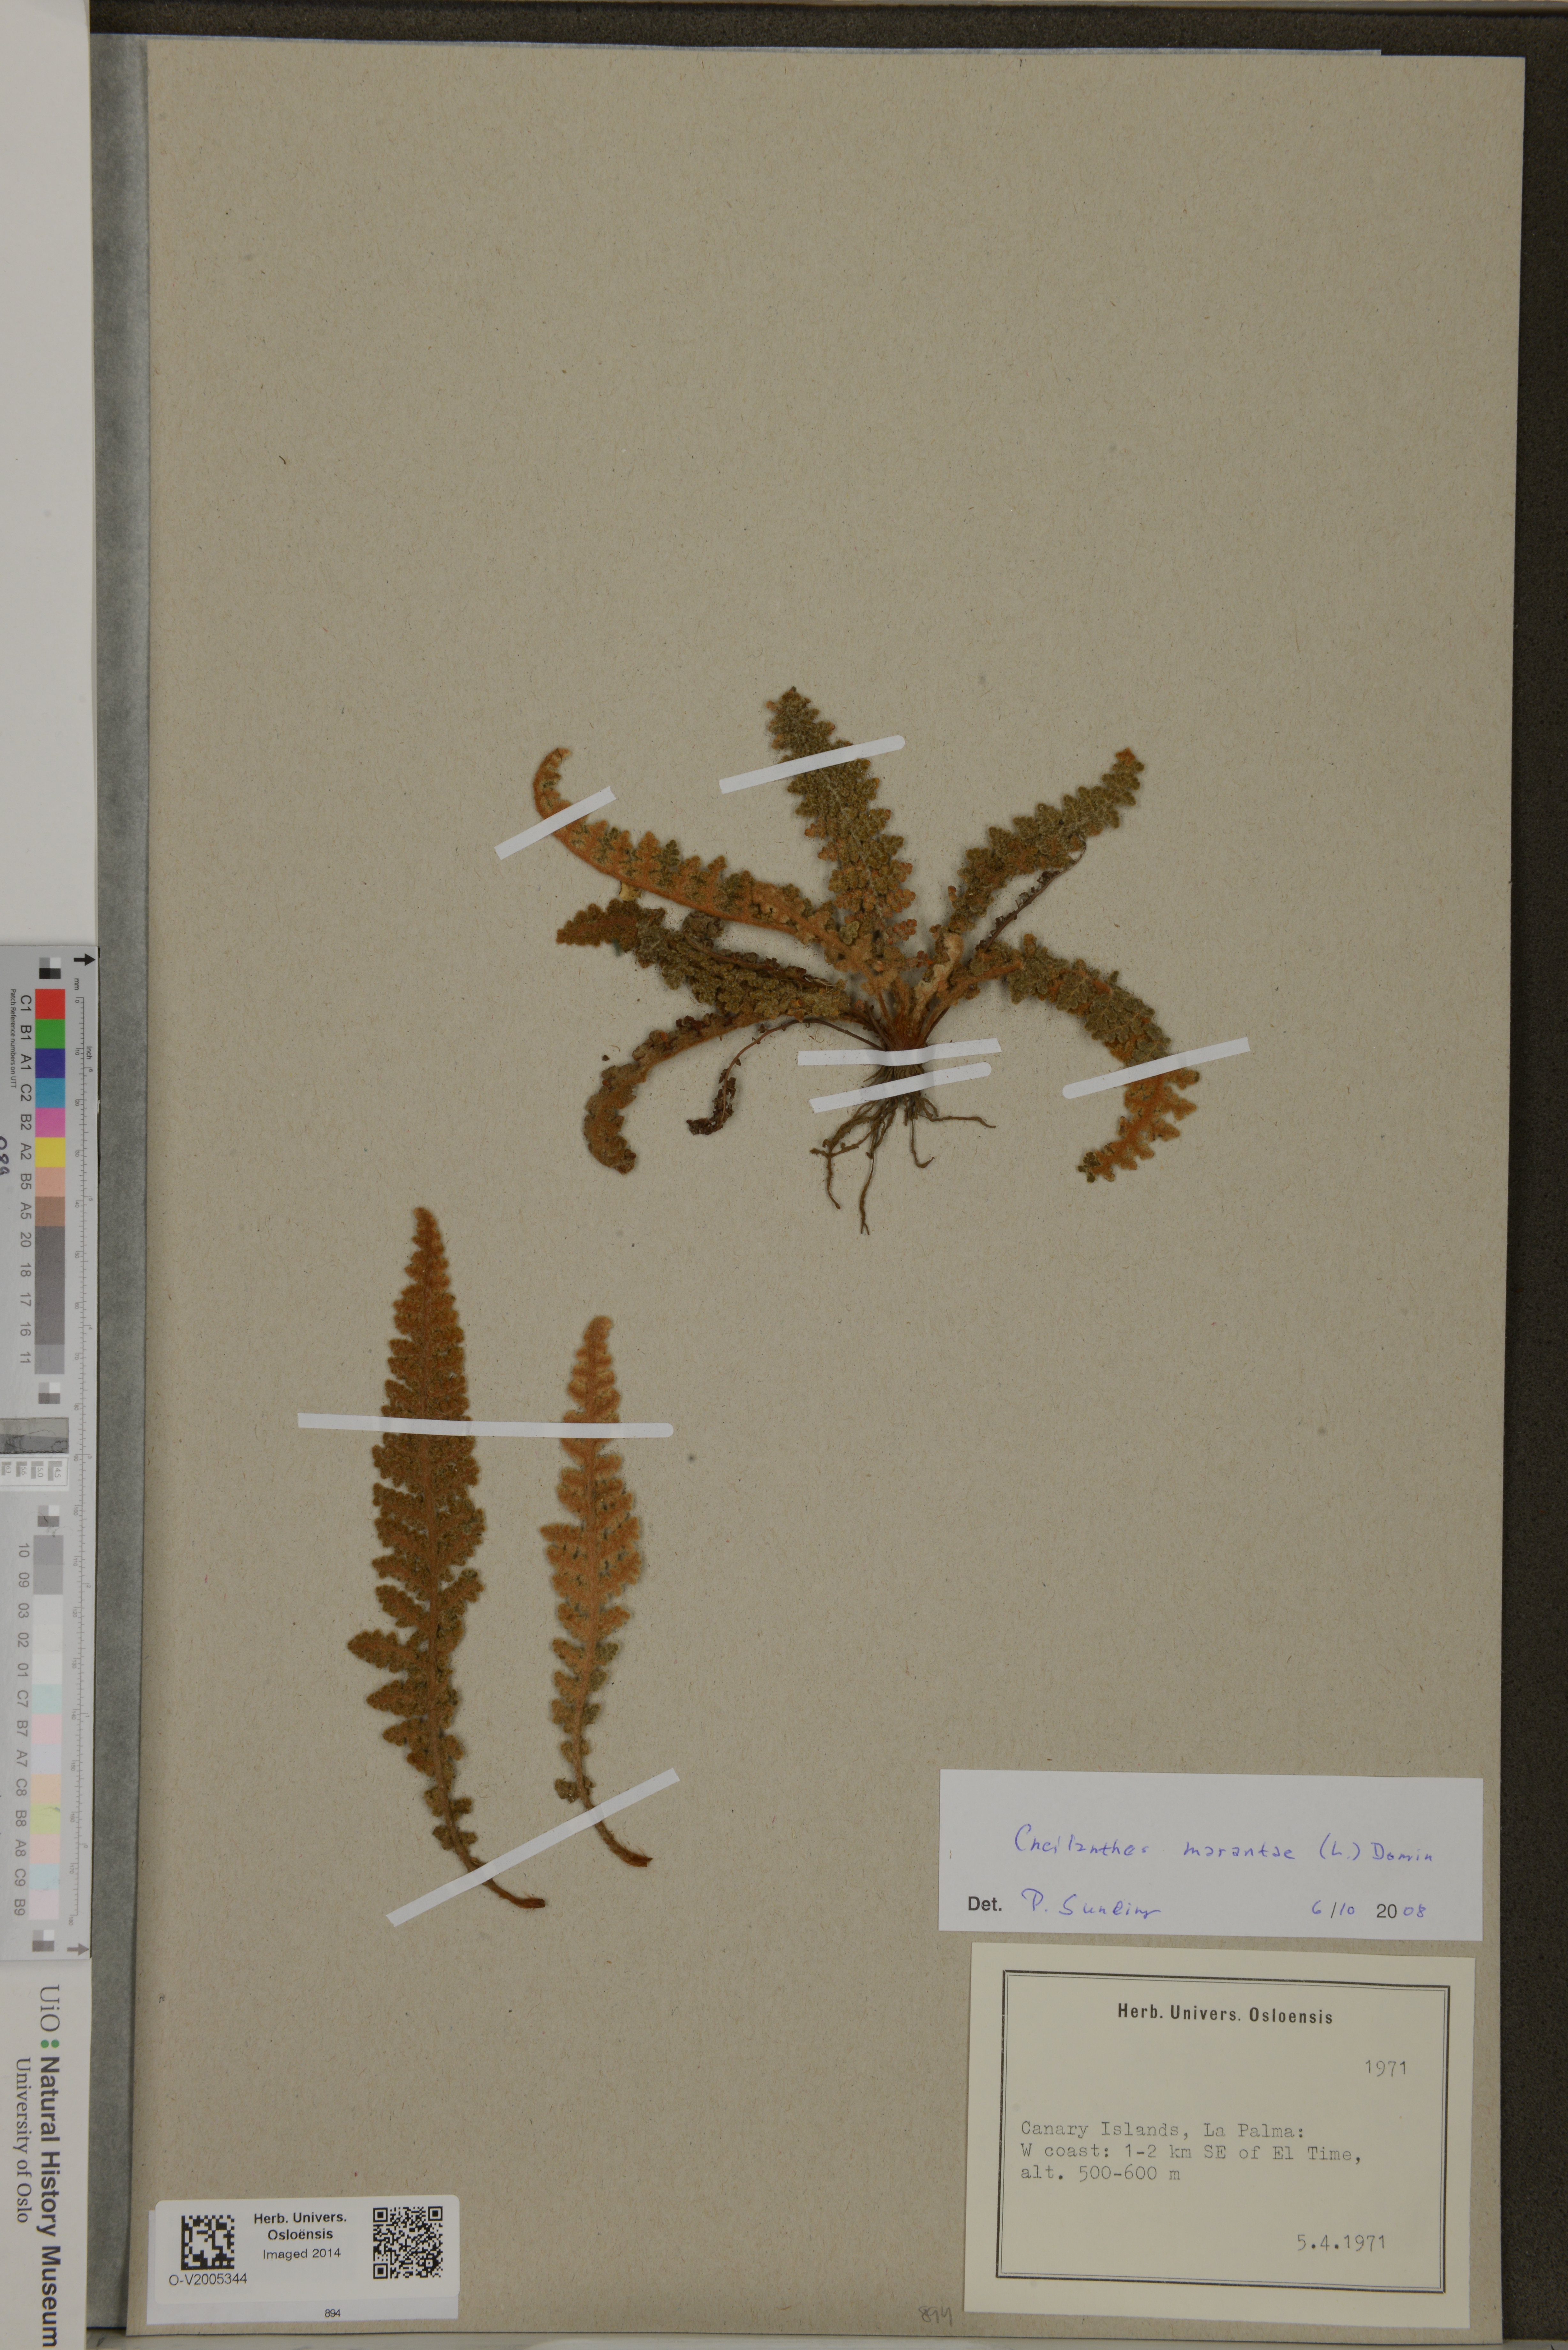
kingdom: Plantae
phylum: Tracheophyta
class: Polypodiopsida
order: Polypodiales
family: Pteridaceae
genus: Paragymnopteris
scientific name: Paragymnopteris marantae
